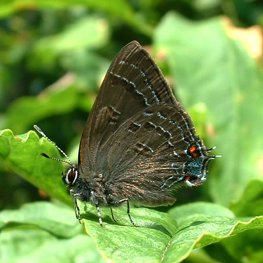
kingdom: Animalia
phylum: Arthropoda
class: Insecta
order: Lepidoptera
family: Lycaenidae
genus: Satyrium
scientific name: Satyrium calanus
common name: Banded Hairstreak
